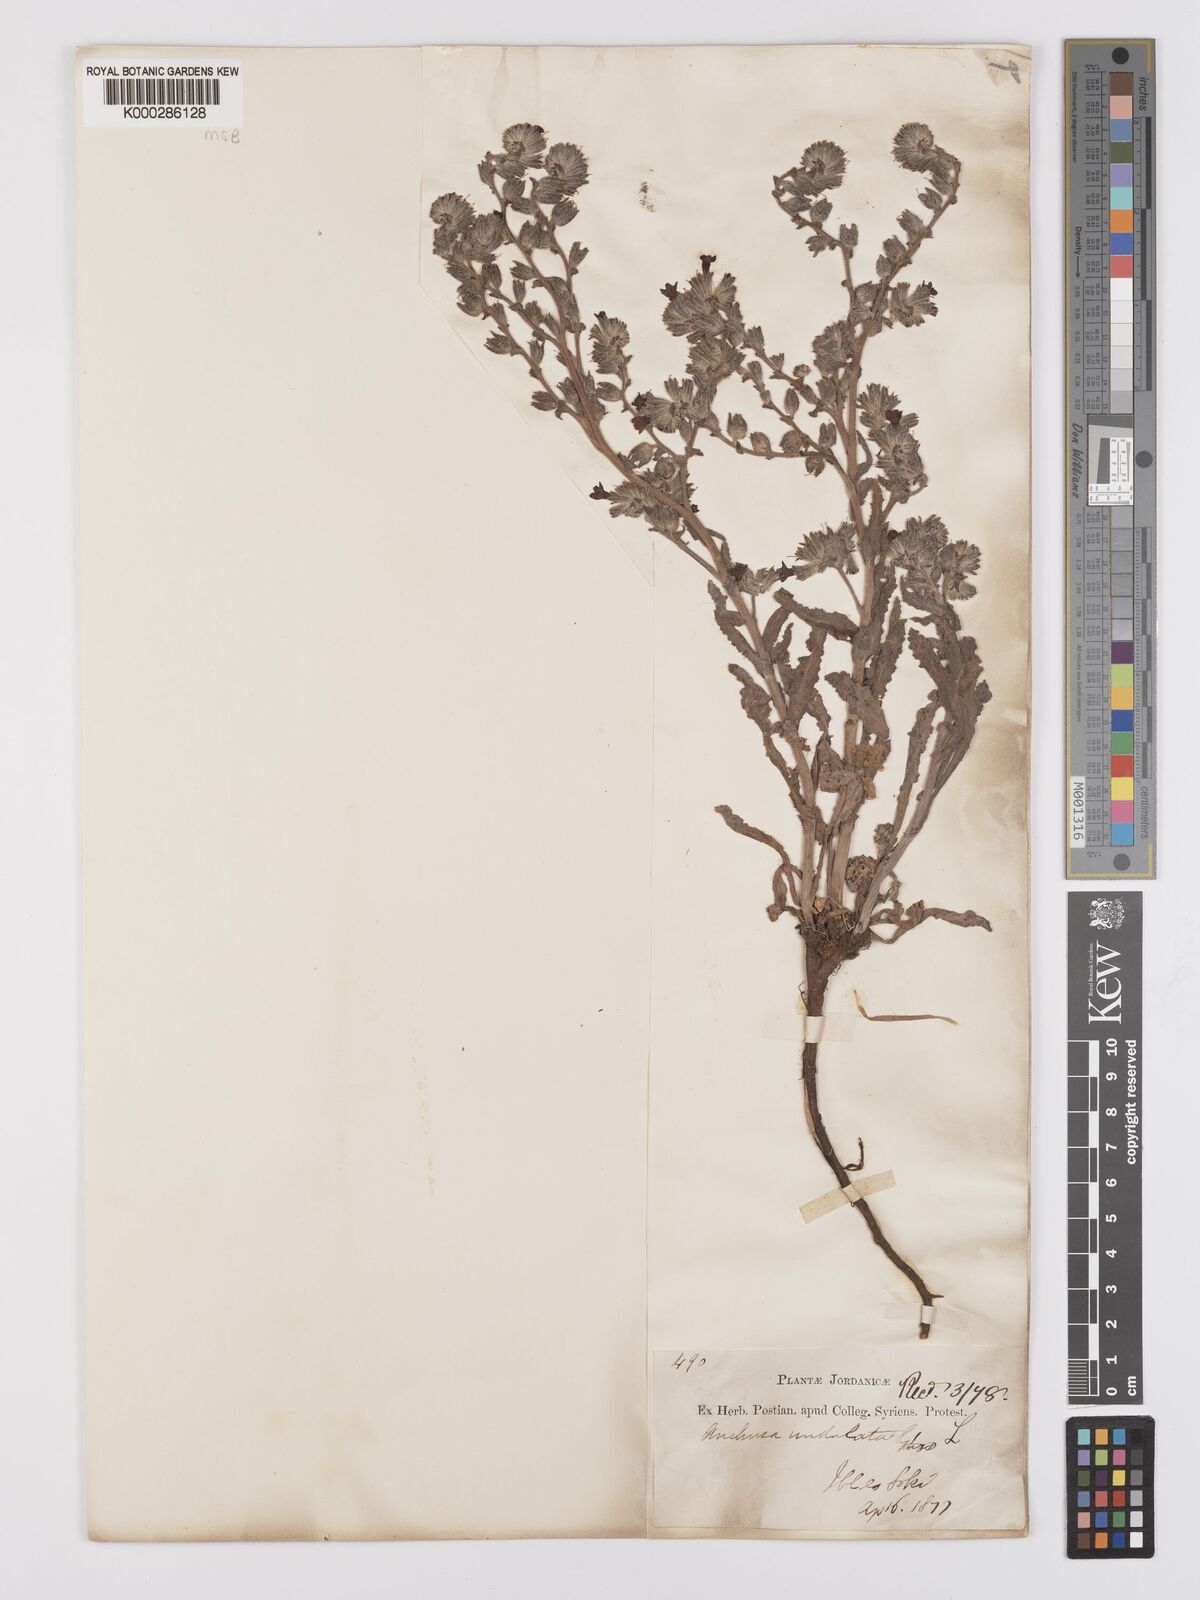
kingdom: Plantae
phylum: Tracheophyta
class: Magnoliopsida
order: Boraginales
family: Boraginaceae
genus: Anchusa
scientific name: Anchusa undulata
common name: Undulate alkanet
